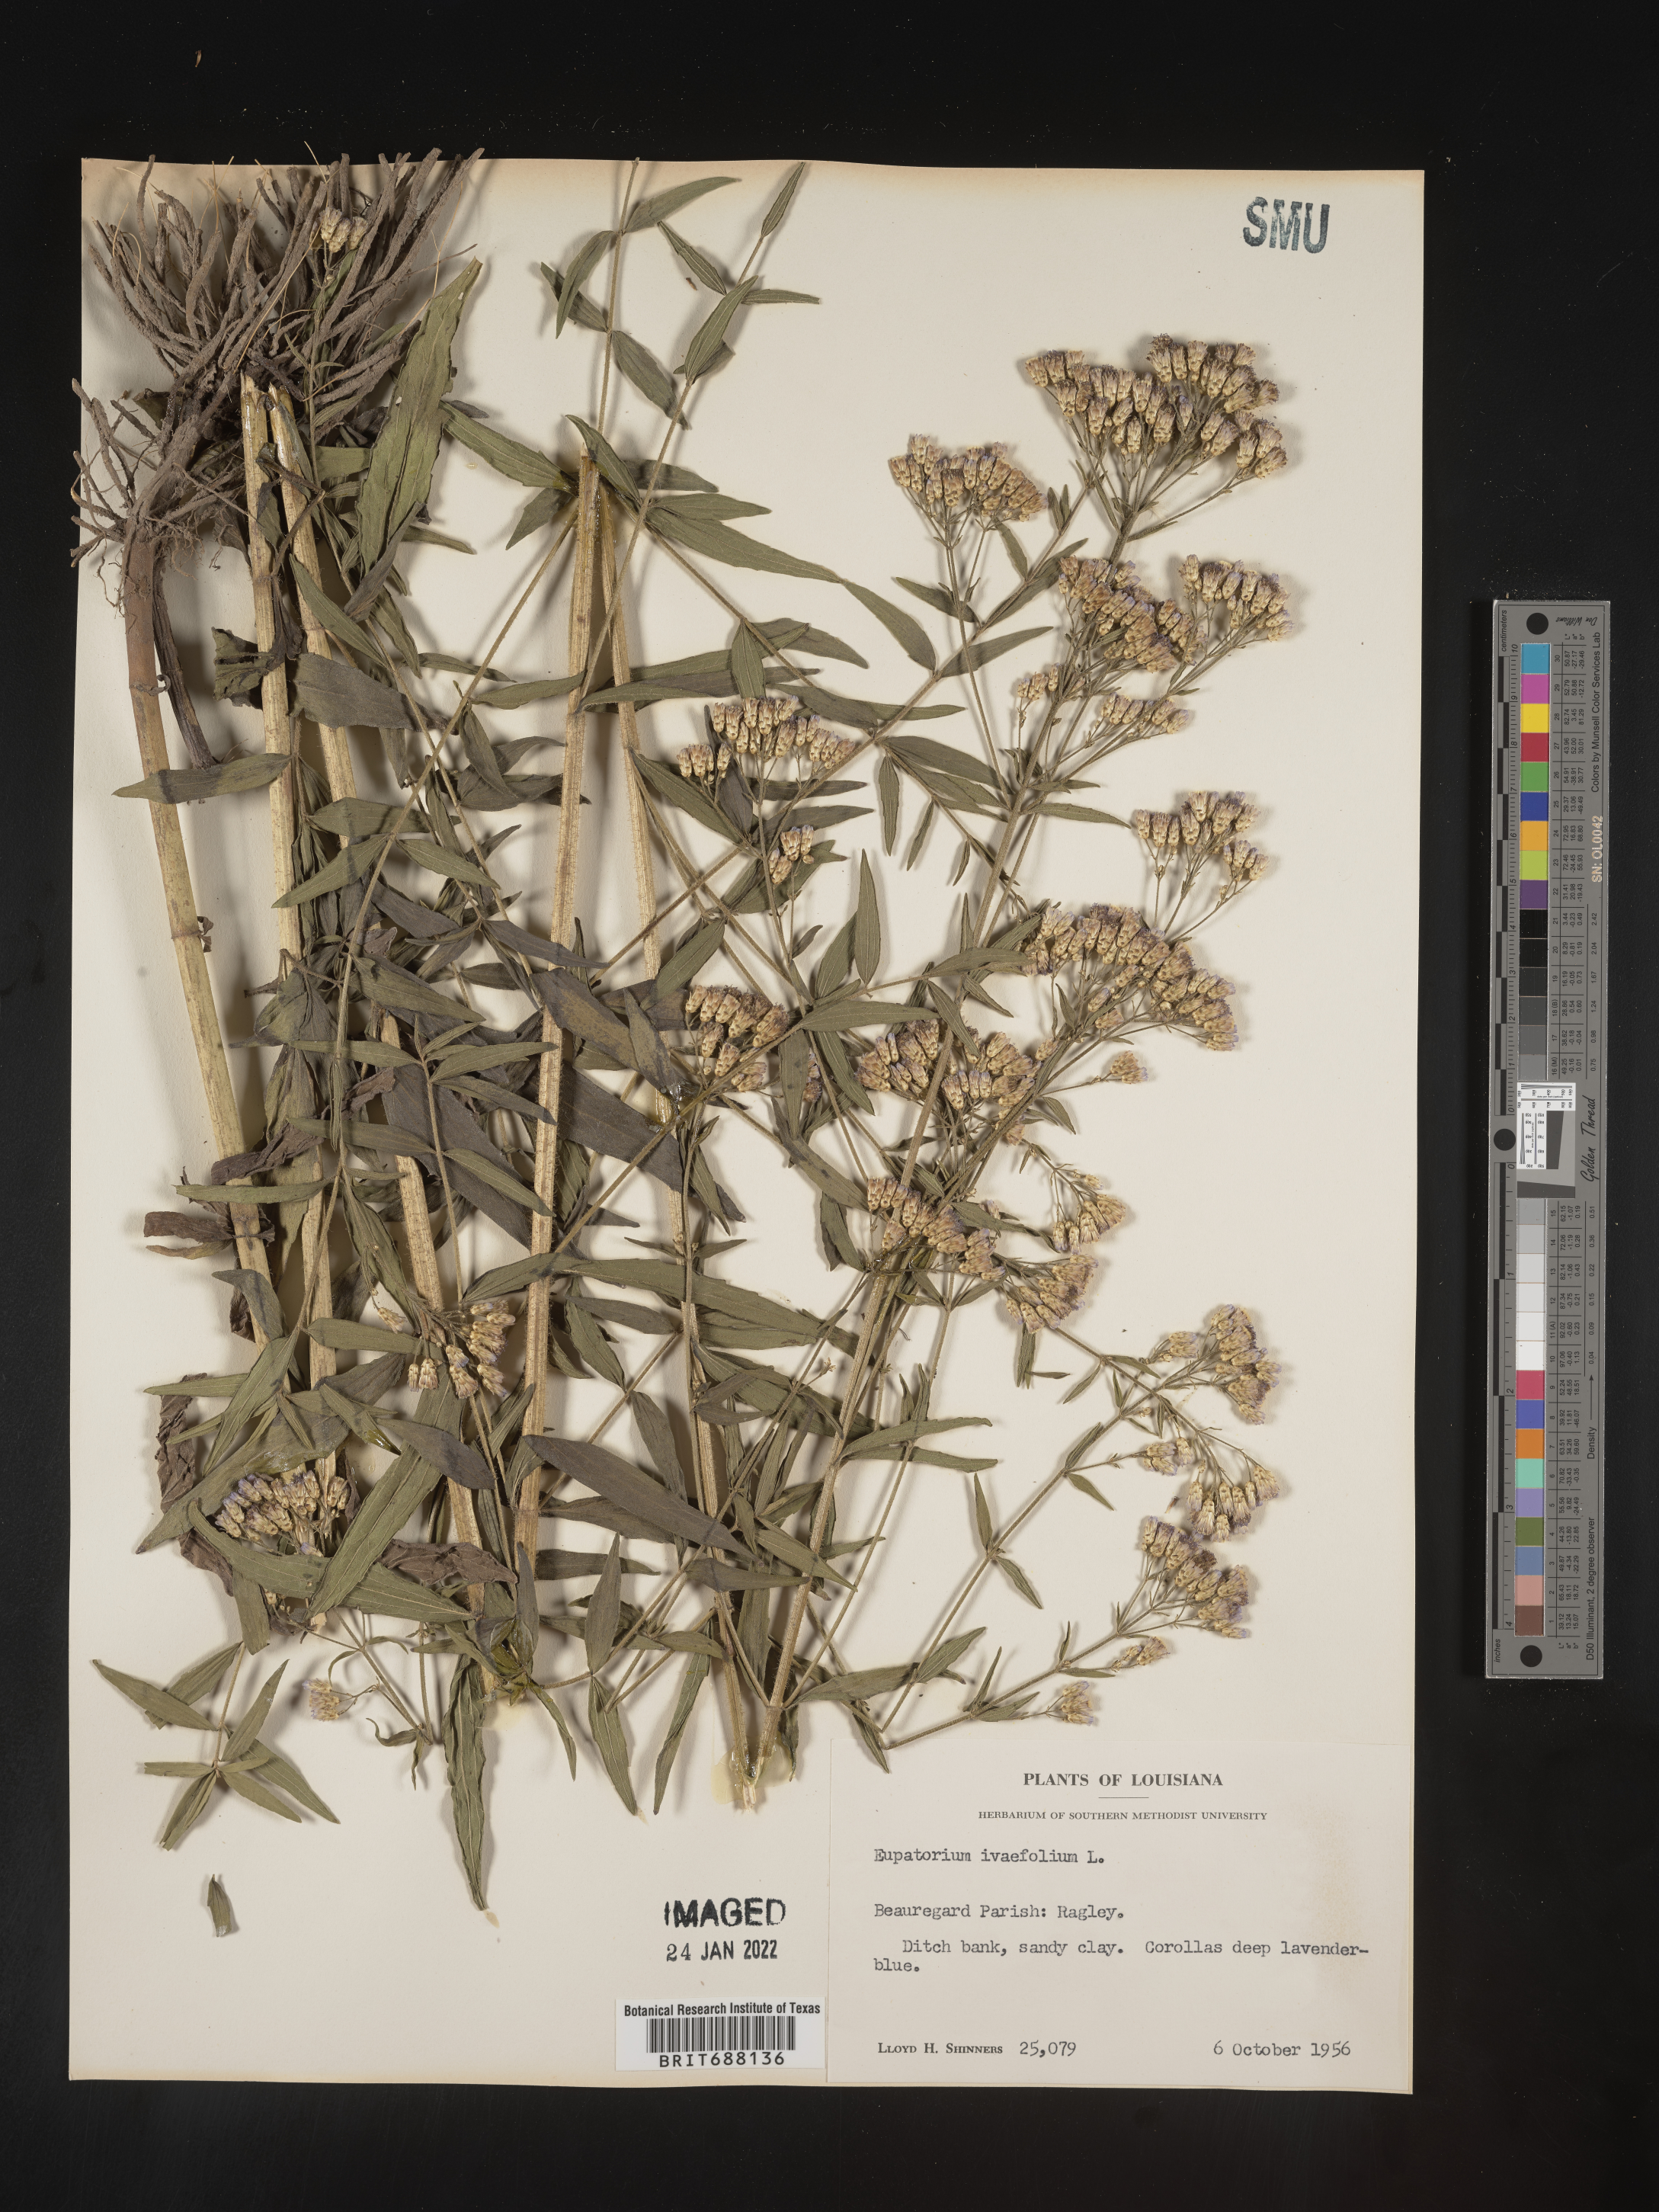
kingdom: Plantae
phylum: Tracheophyta
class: Magnoliopsida
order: Asterales
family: Asteraceae
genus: Chromolaena
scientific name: Chromolaena ivifolia
